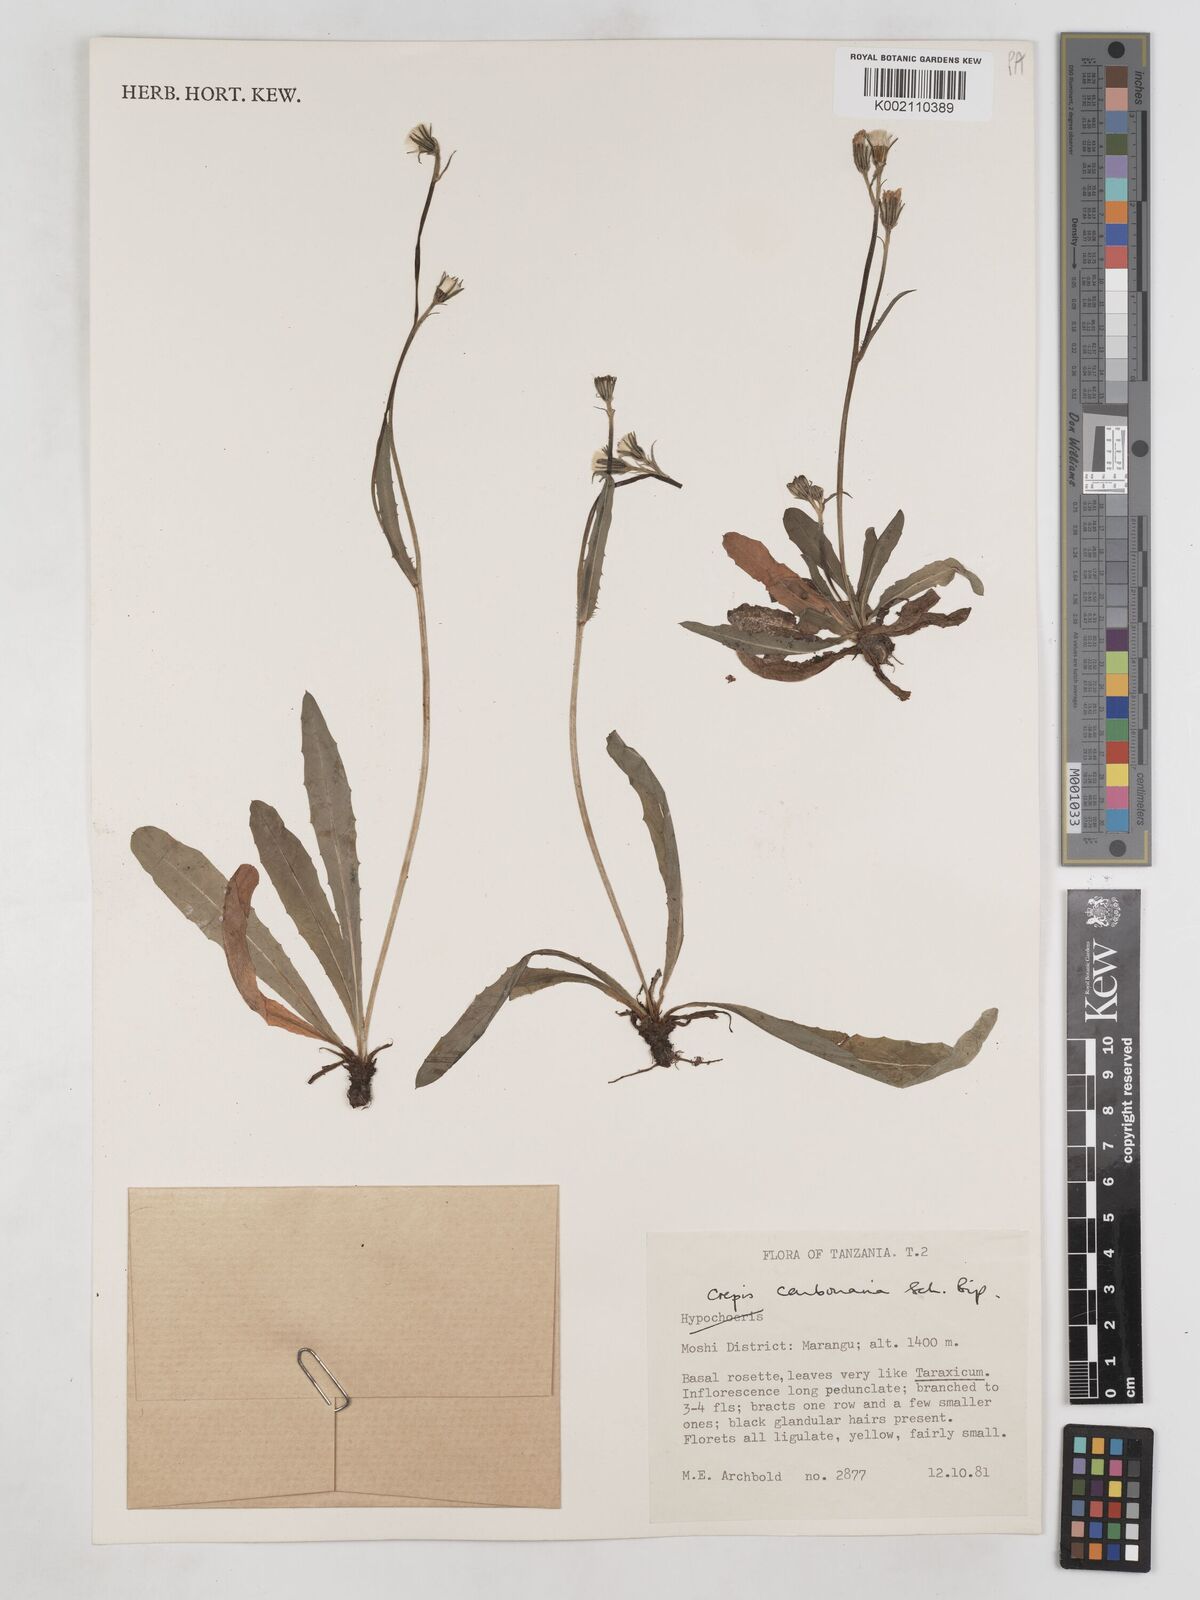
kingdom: Plantae
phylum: Tracheophyta
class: Magnoliopsida
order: Asterales
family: Asteraceae
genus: Crepis
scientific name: Crepis carbonaria
